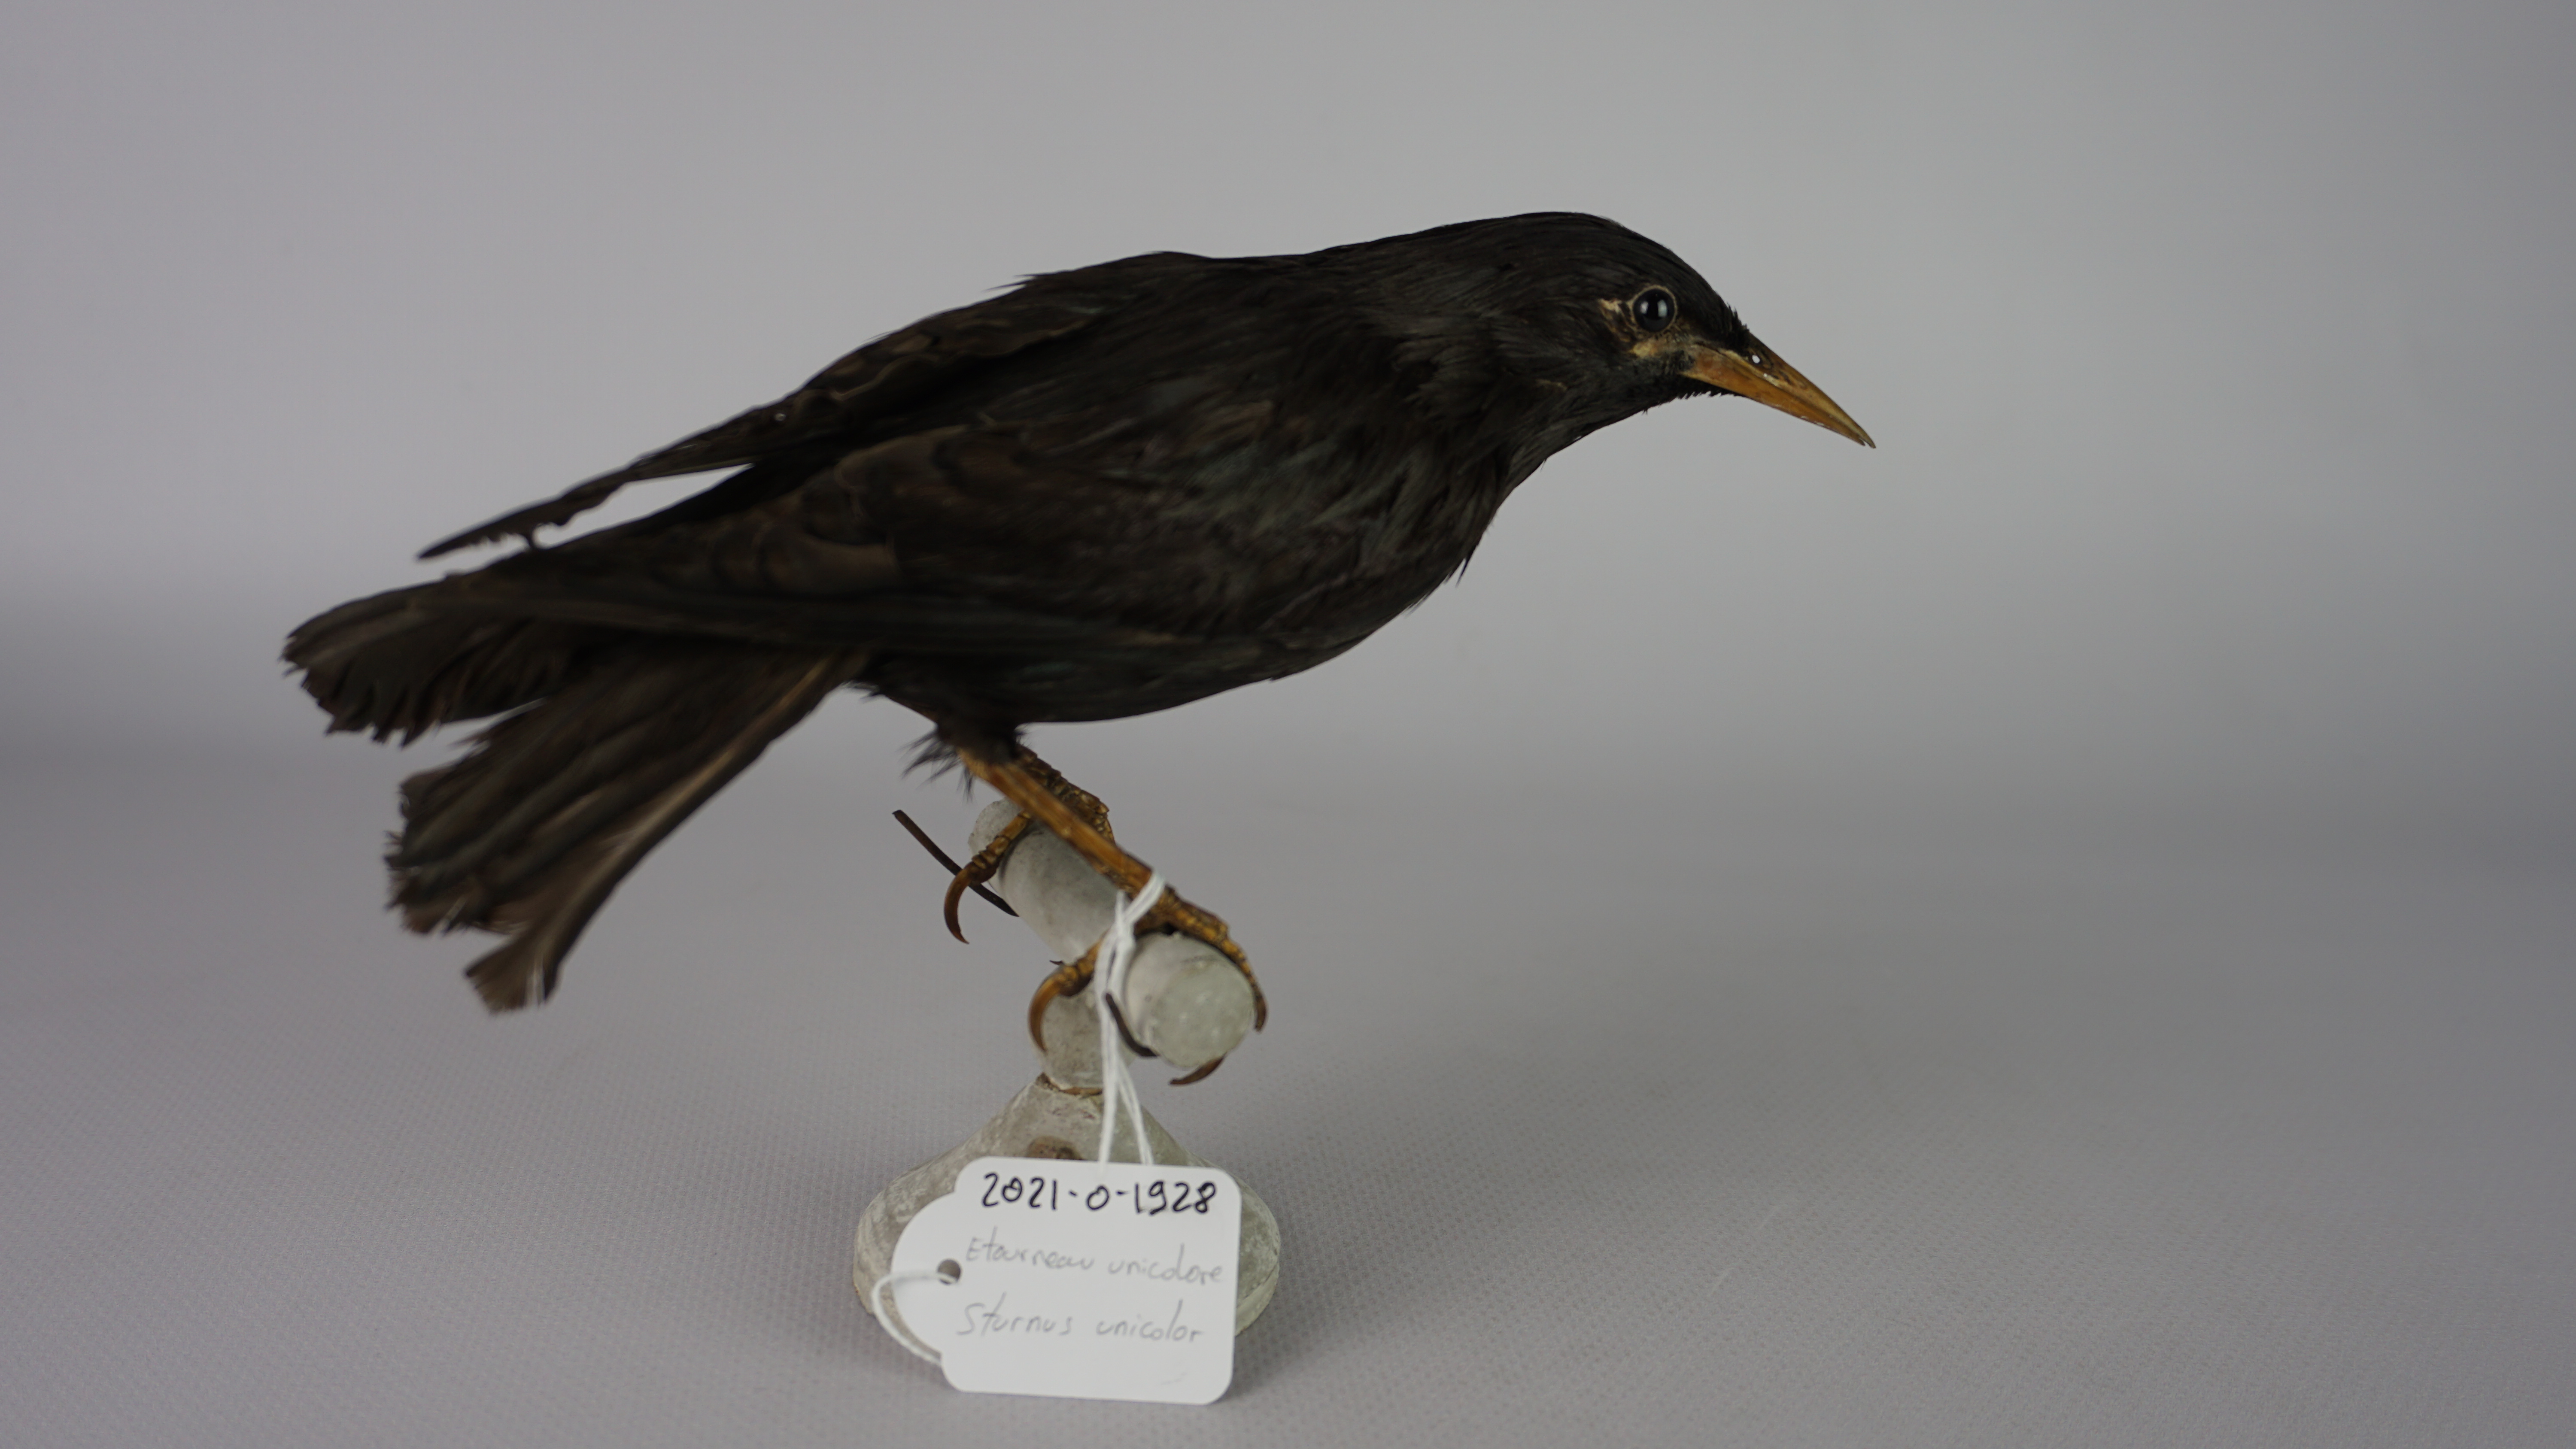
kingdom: Animalia
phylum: Chordata
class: Aves
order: Passeriformes
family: Sturnidae
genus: Sturnus
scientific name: Sturnus unicolor
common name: Spotless starling
